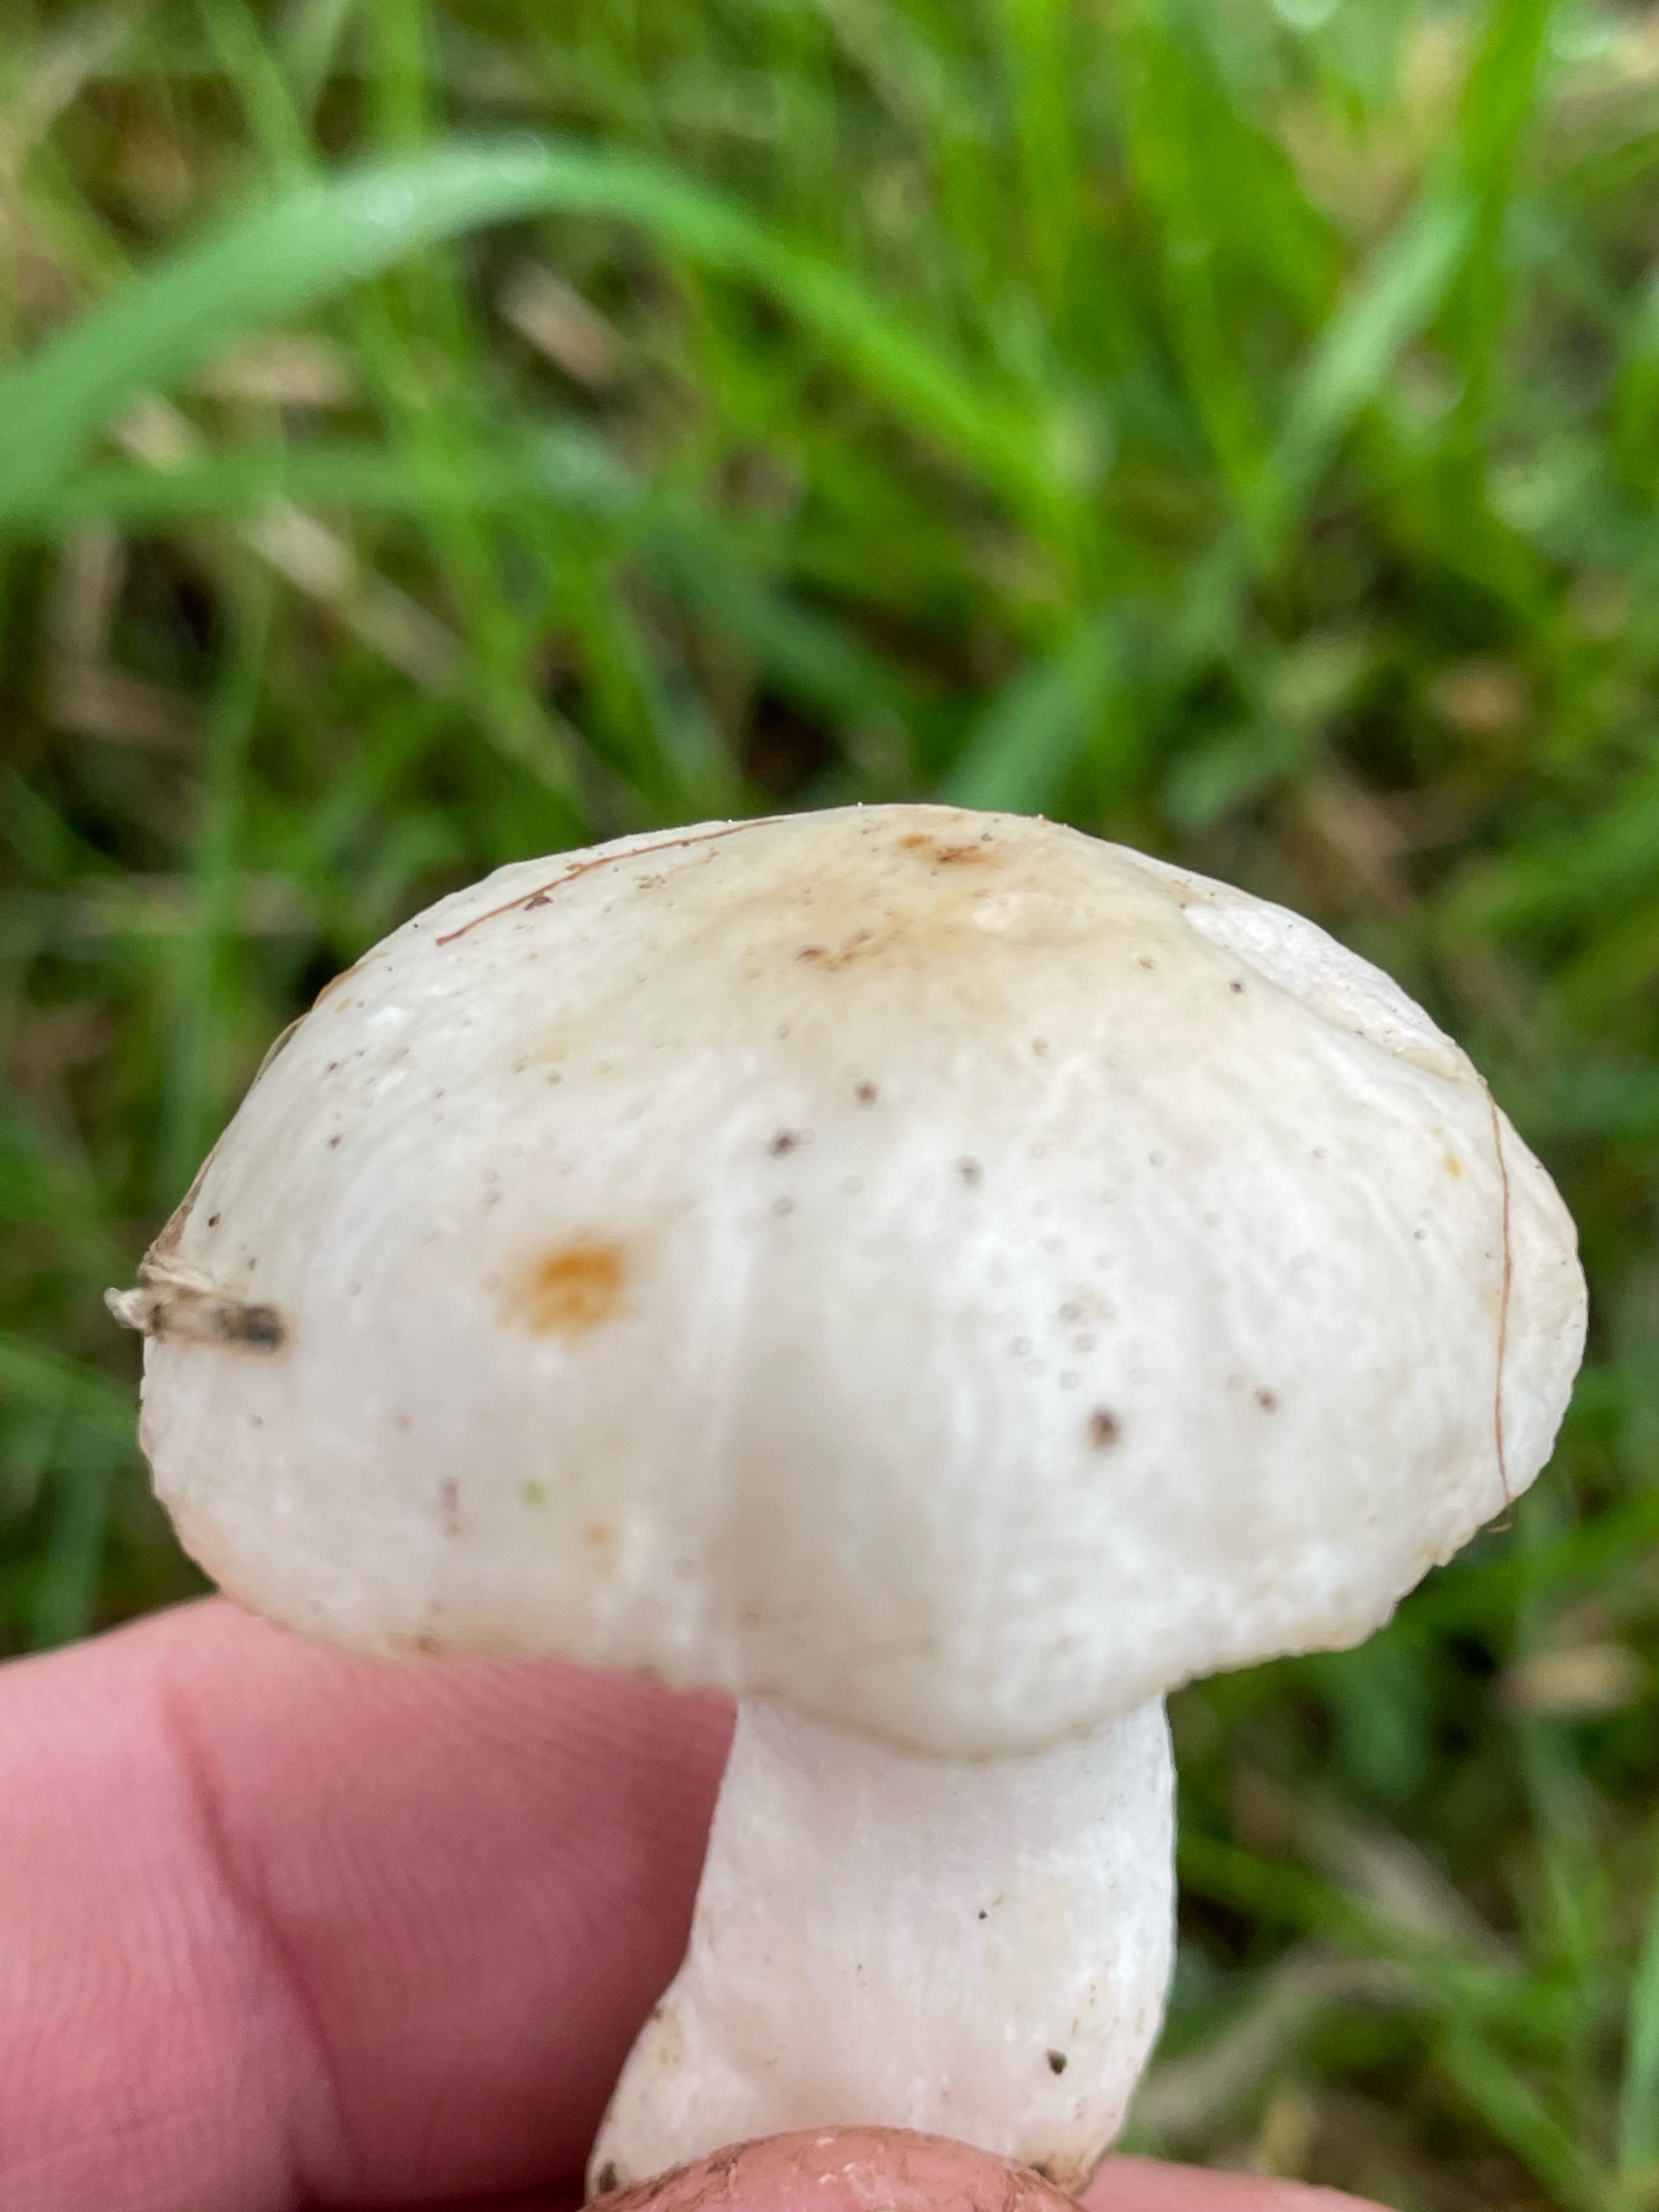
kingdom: Fungi
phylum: Basidiomycota
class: Agaricomycetes
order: Russulales
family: Russulaceae
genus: Russula
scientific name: Russula
